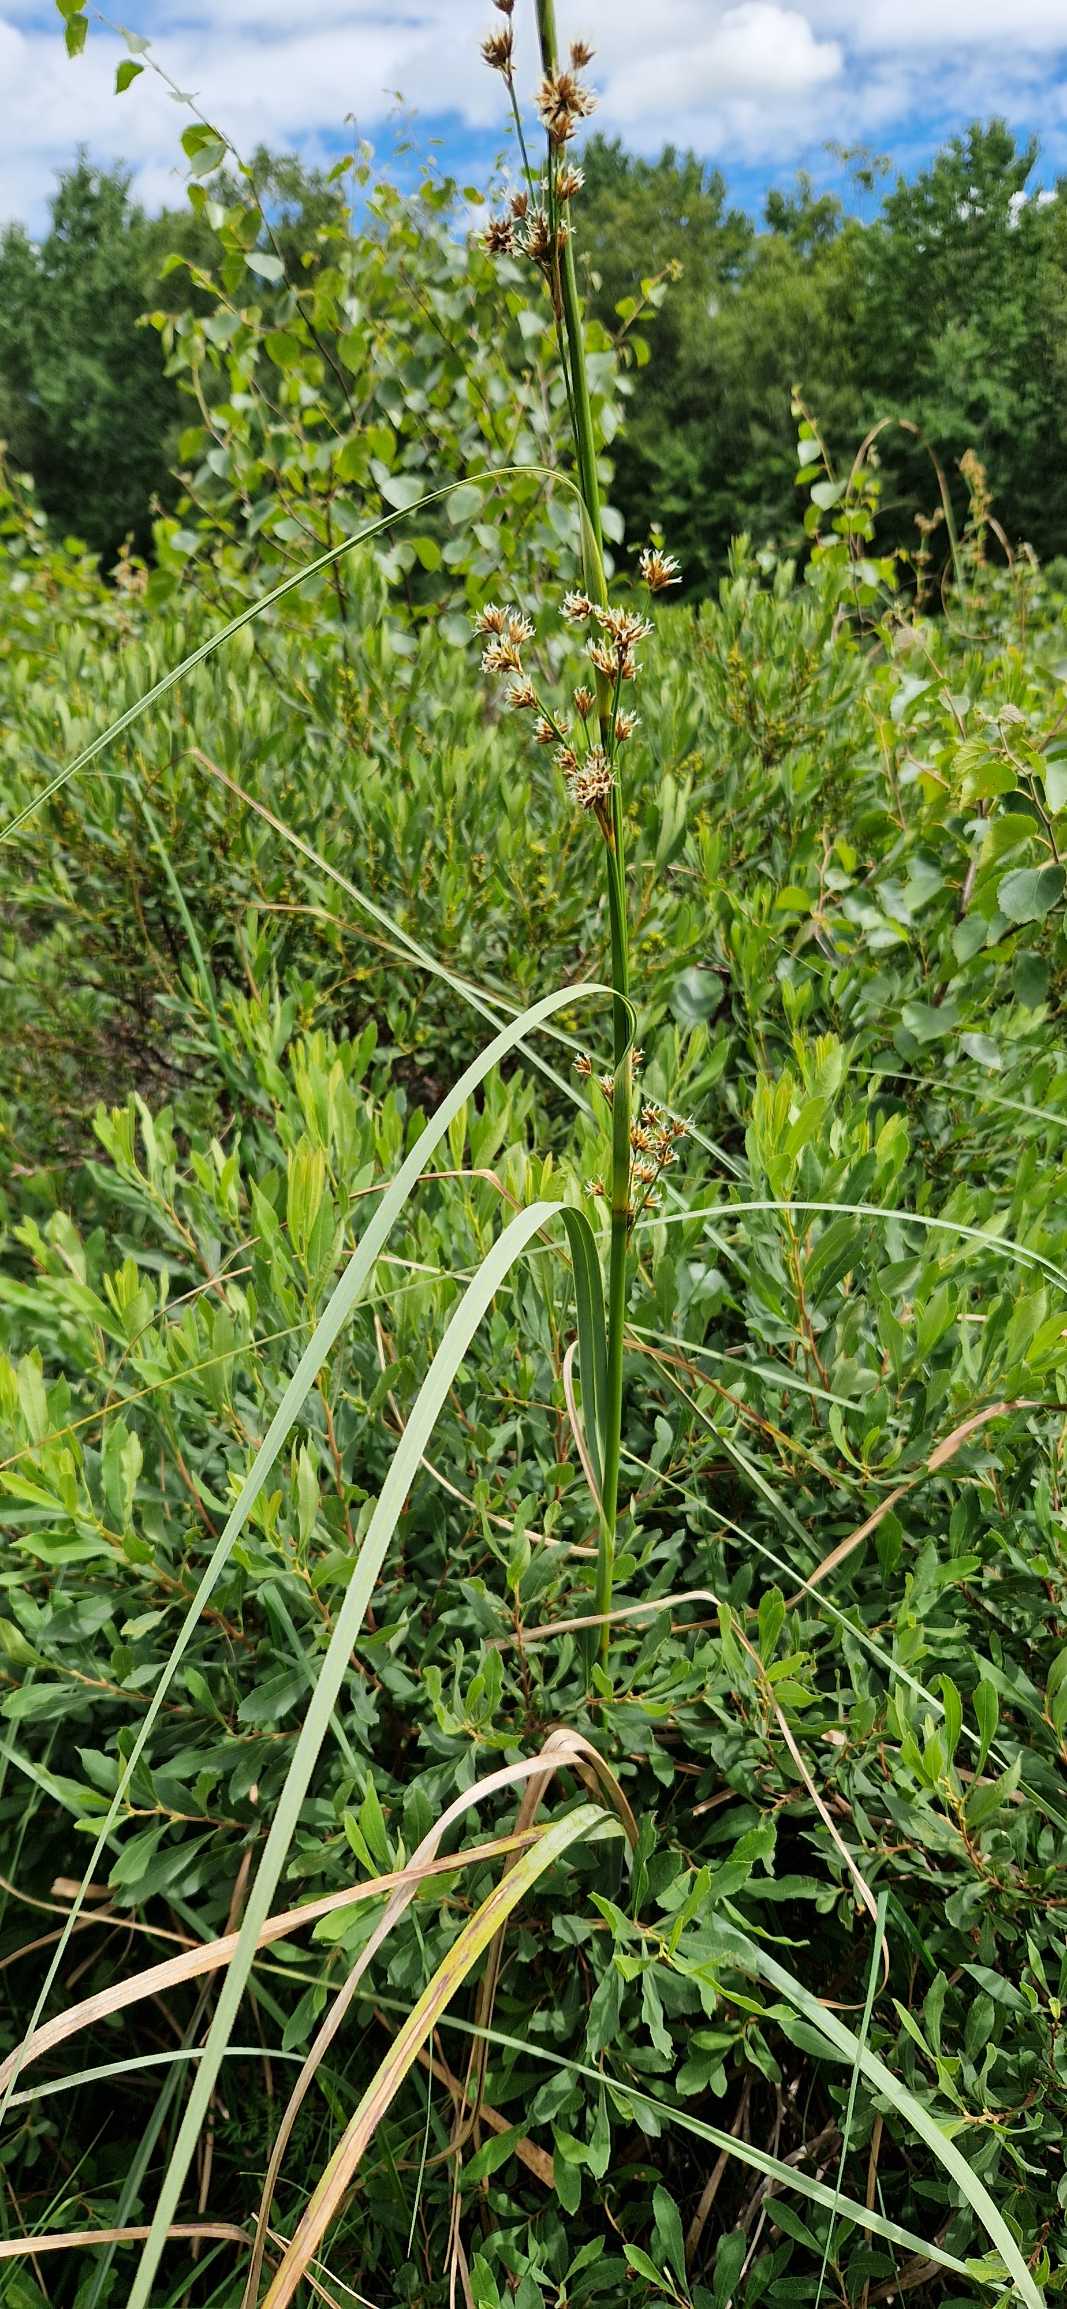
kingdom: Plantae
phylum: Tracheophyta
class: Liliopsida
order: Poales
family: Cyperaceae
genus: Cladium
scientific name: Cladium mariscus
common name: Hvas avneknippe
